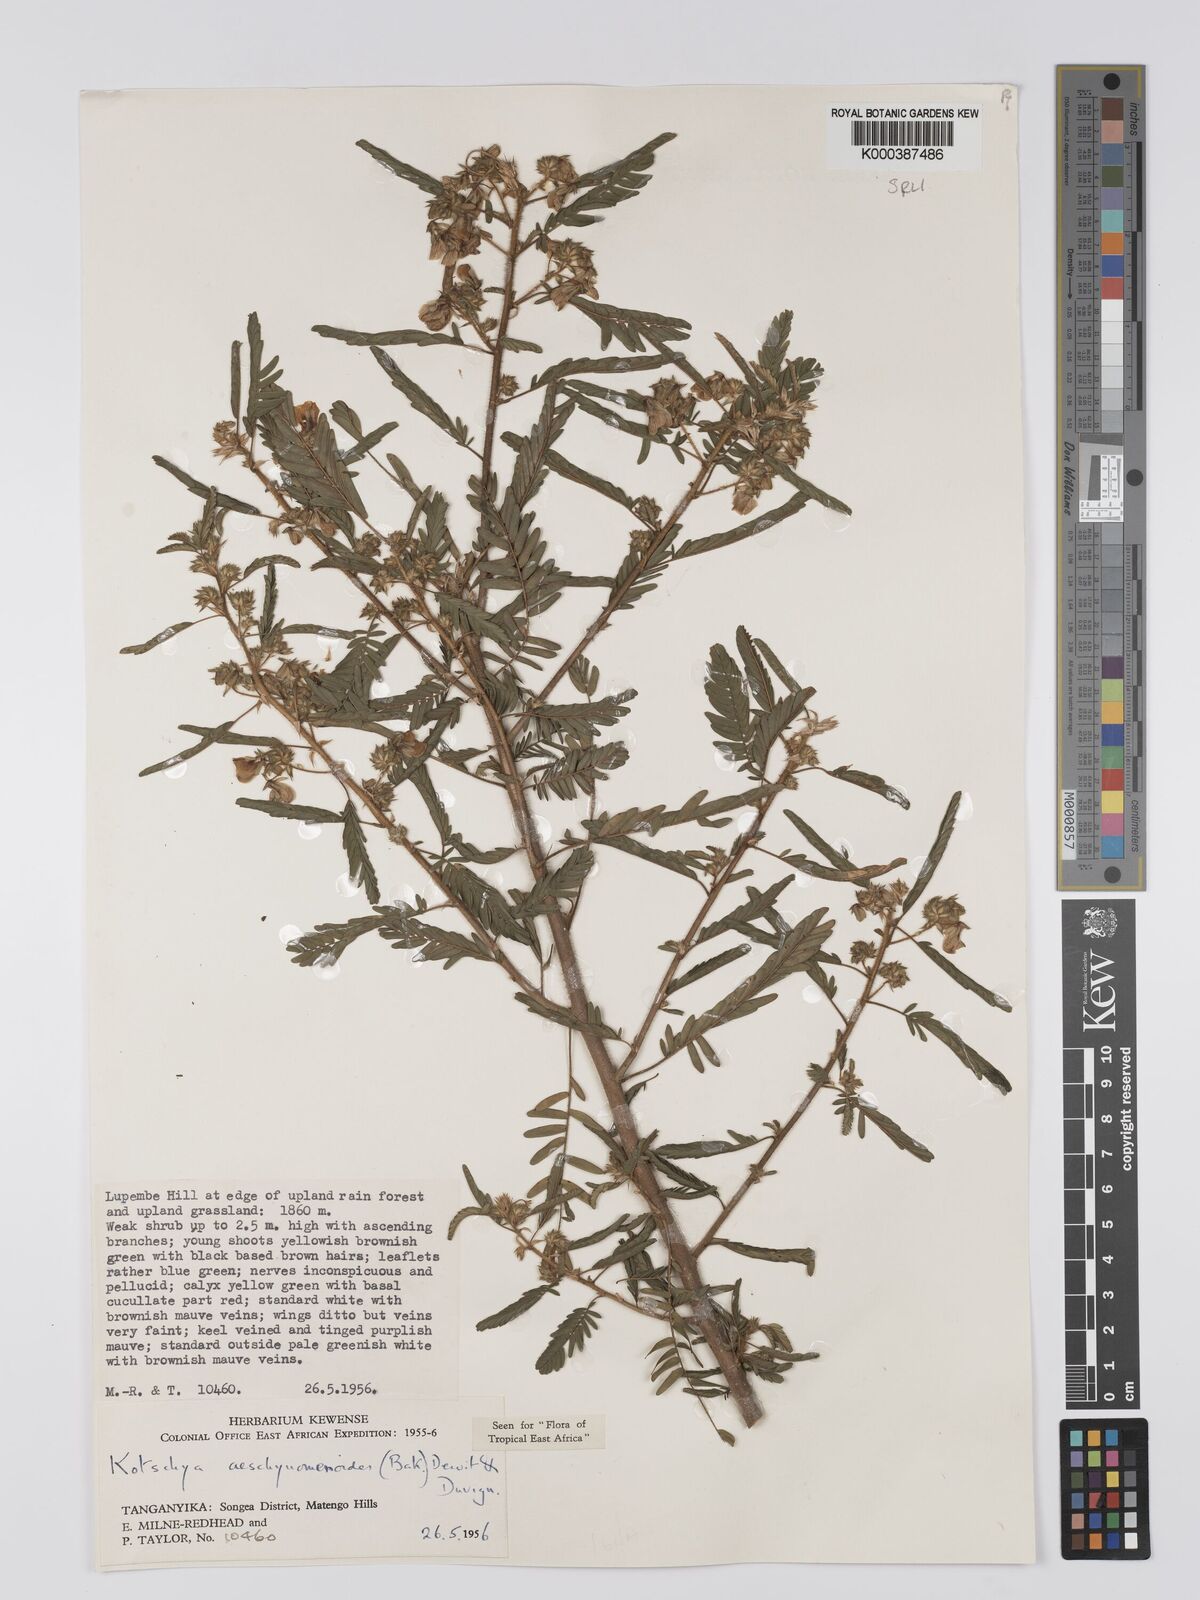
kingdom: Plantae
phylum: Tracheophyta
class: Magnoliopsida
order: Fabales
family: Fabaceae
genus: Kotschya
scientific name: Kotschya aeschynomenoides
